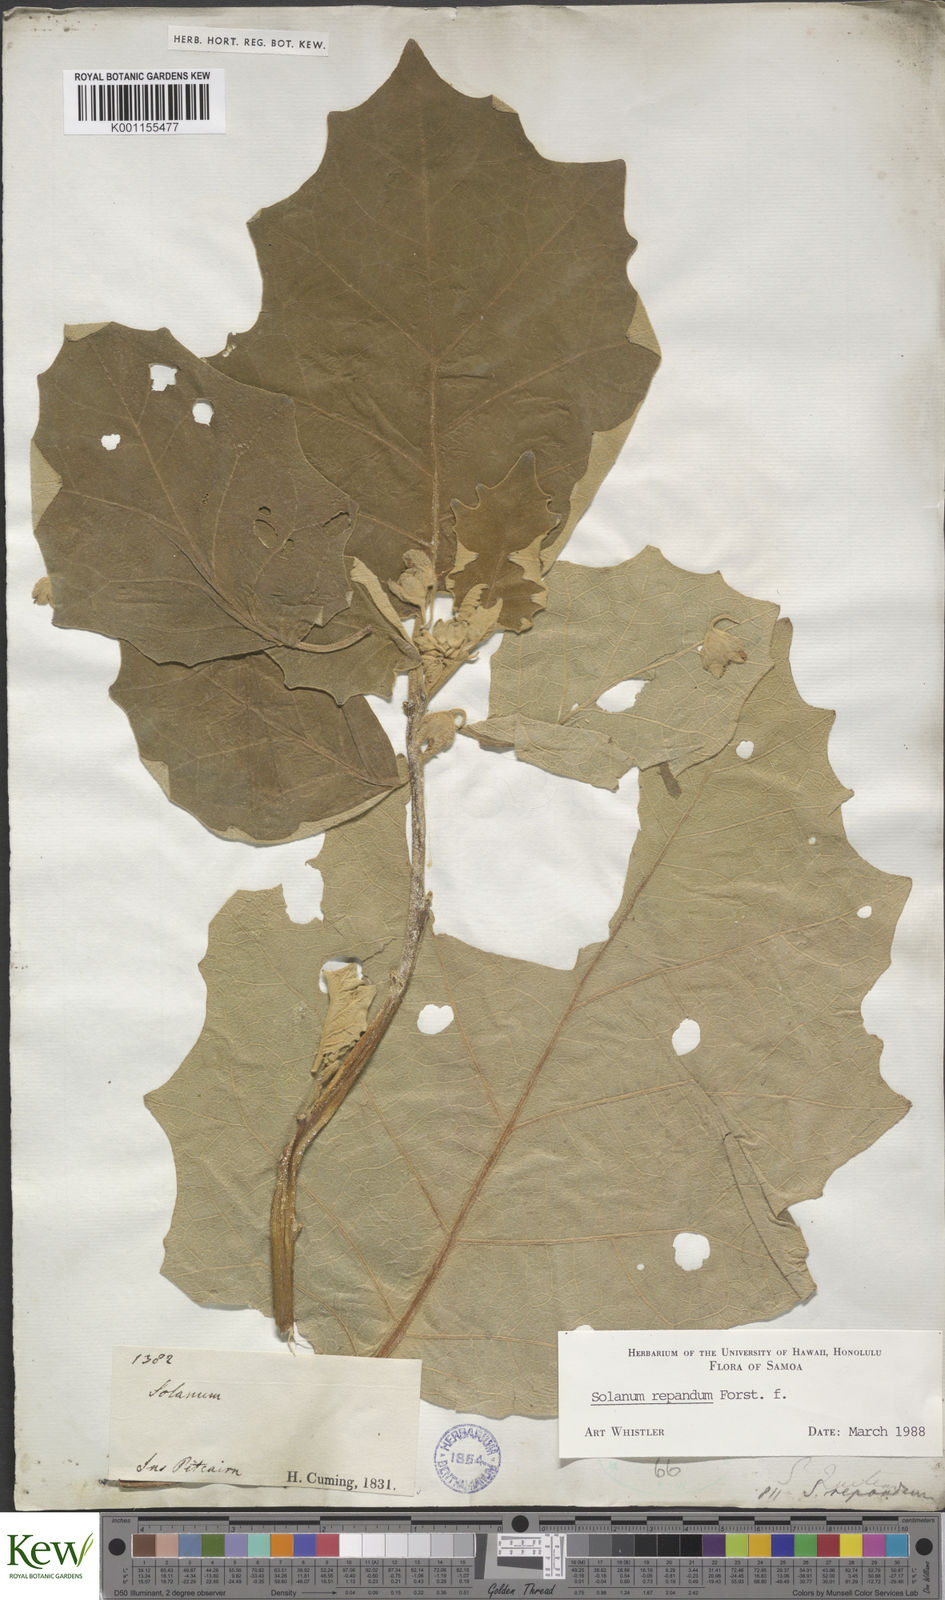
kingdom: Plantae
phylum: Tracheophyta
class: Magnoliopsida
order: Solanales
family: Solanaceae
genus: Solanum
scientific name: Solanum repandum
